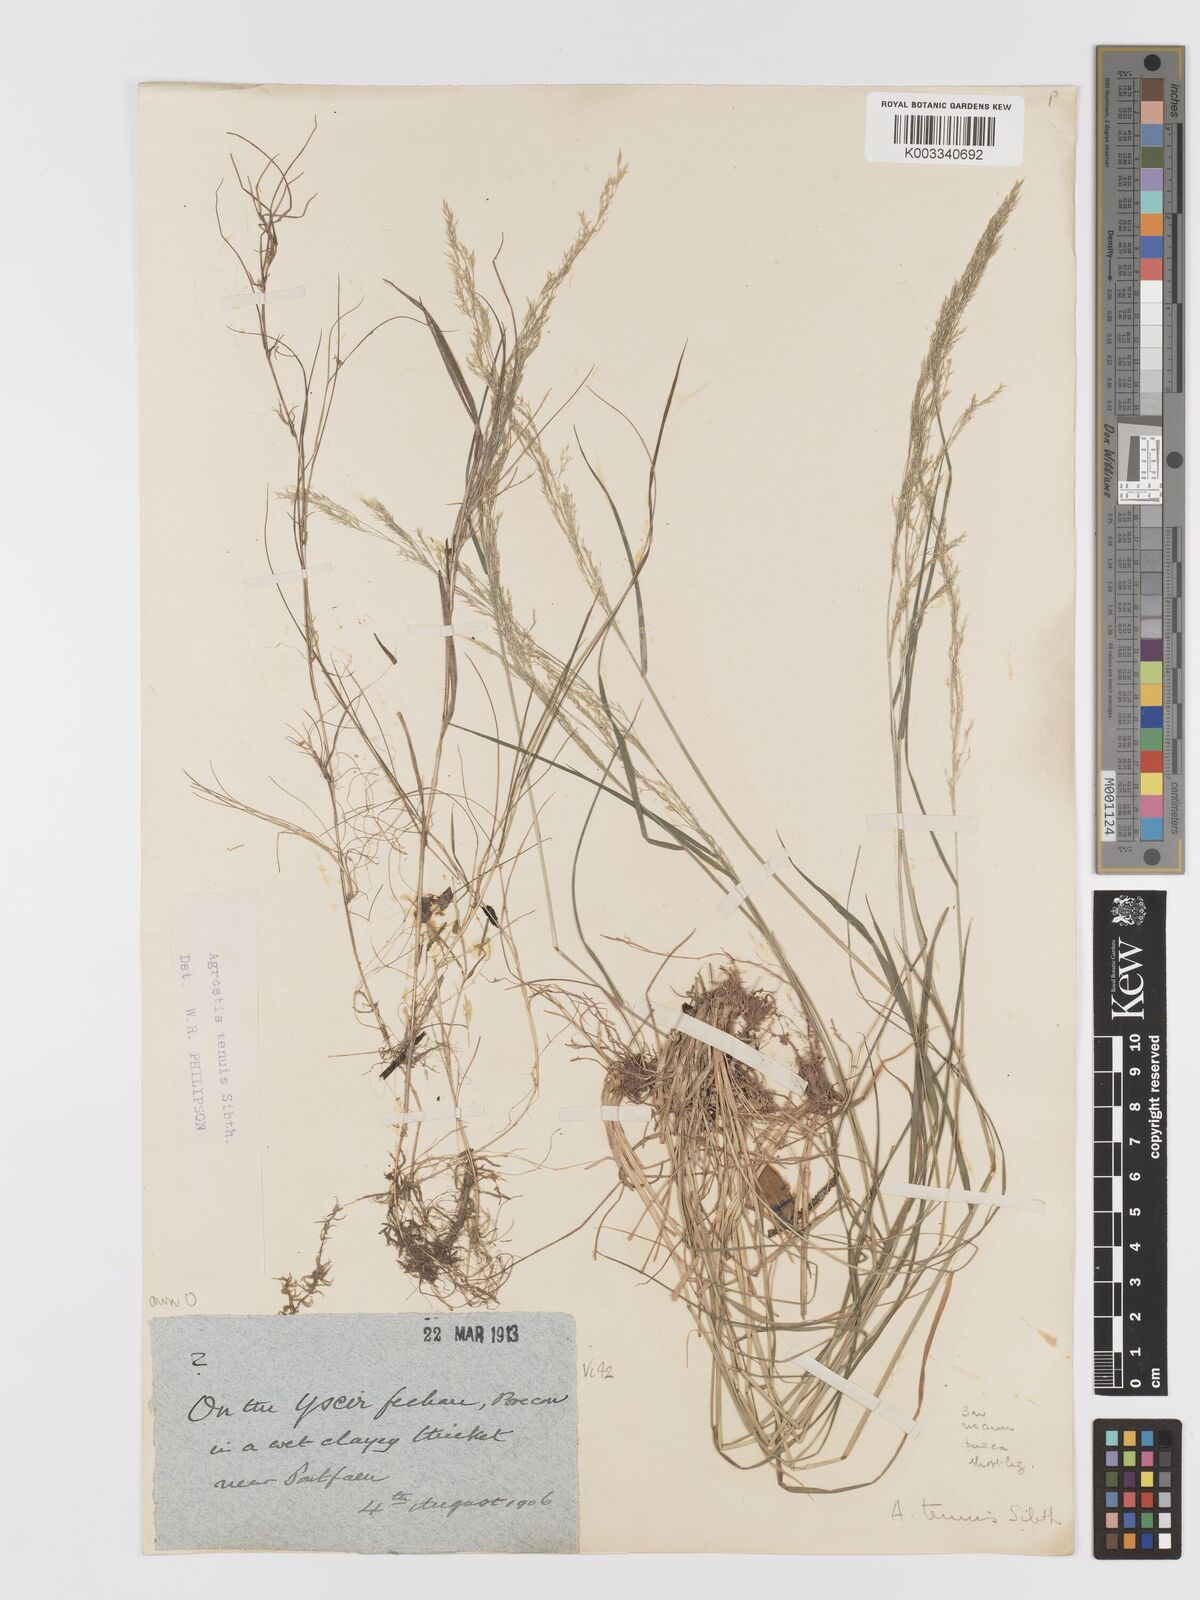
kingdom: Plantae
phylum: Tracheophyta
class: Liliopsida
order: Poales
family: Poaceae
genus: Agrostis
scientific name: Agrostis capillaris
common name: Colonial bentgrass
